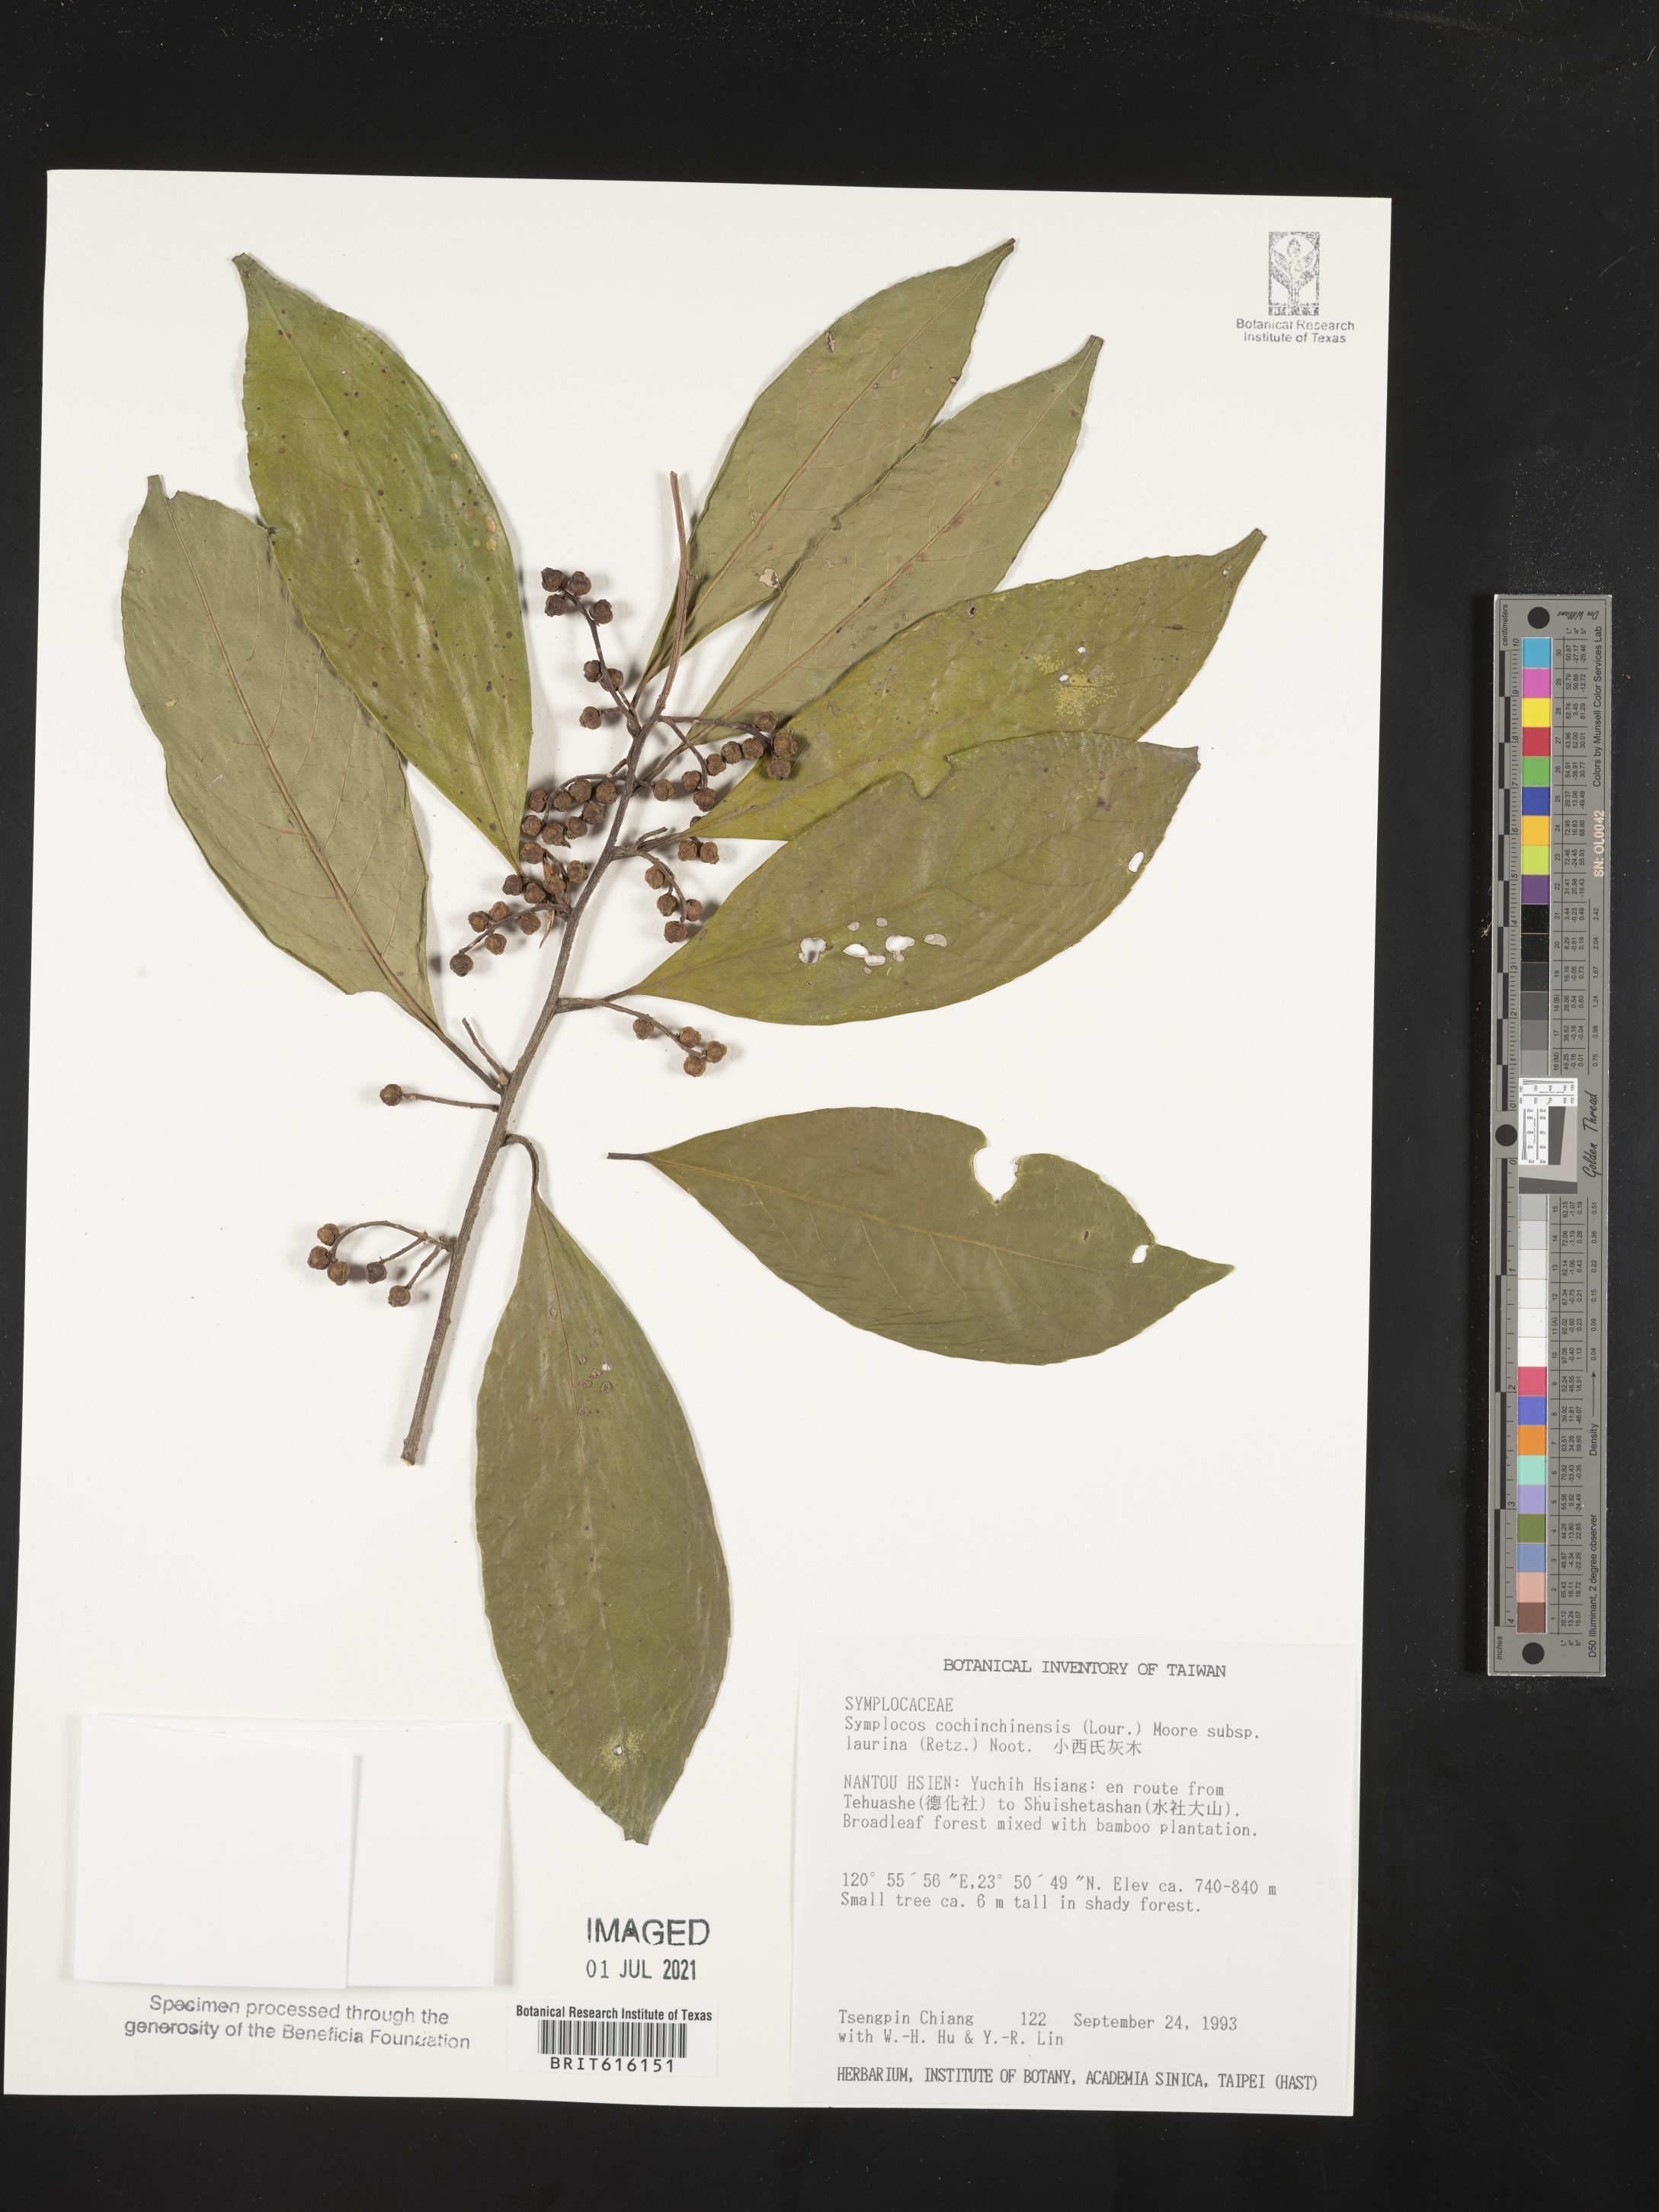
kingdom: Plantae
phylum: Tracheophyta
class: Magnoliopsida
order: Ericales
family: Symplocaceae
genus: Symplocos
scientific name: Symplocos acuminata
